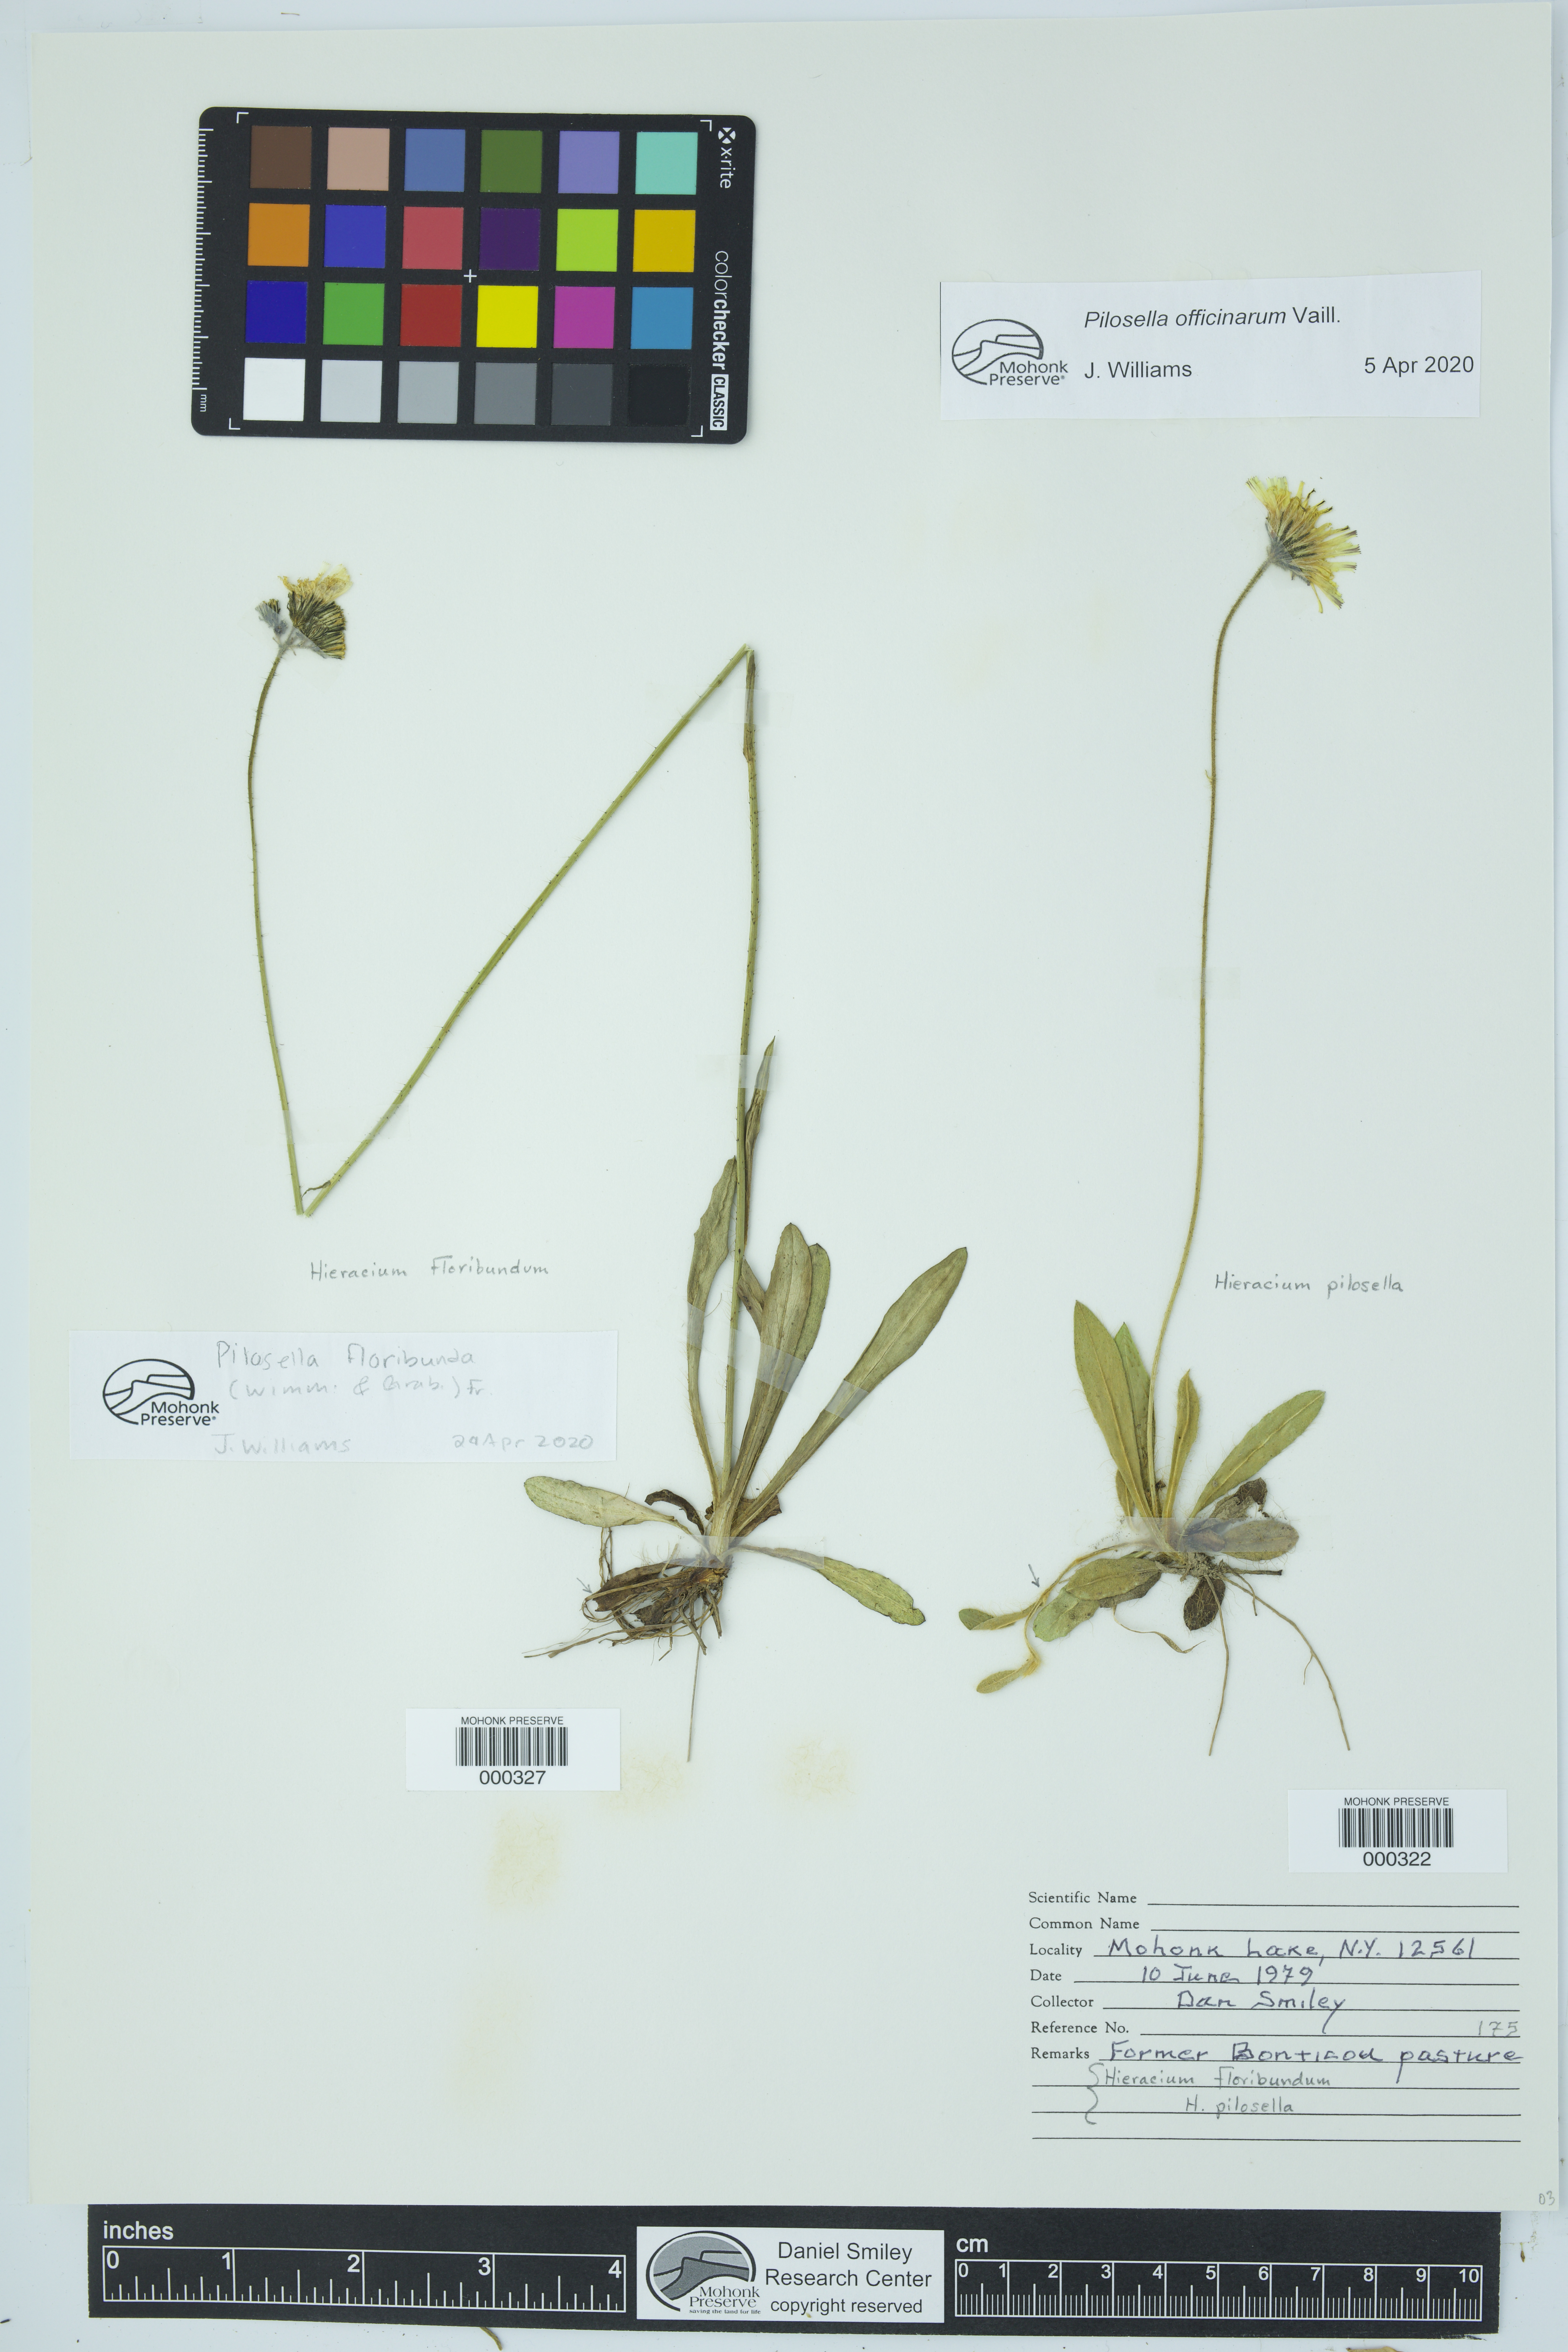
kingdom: Plantae
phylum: Tracheophyta
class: Magnoliopsida
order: Asterales
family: Asteraceae
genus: Pilosella
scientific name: Pilosella floribunda
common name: Glaucous hawkweed
